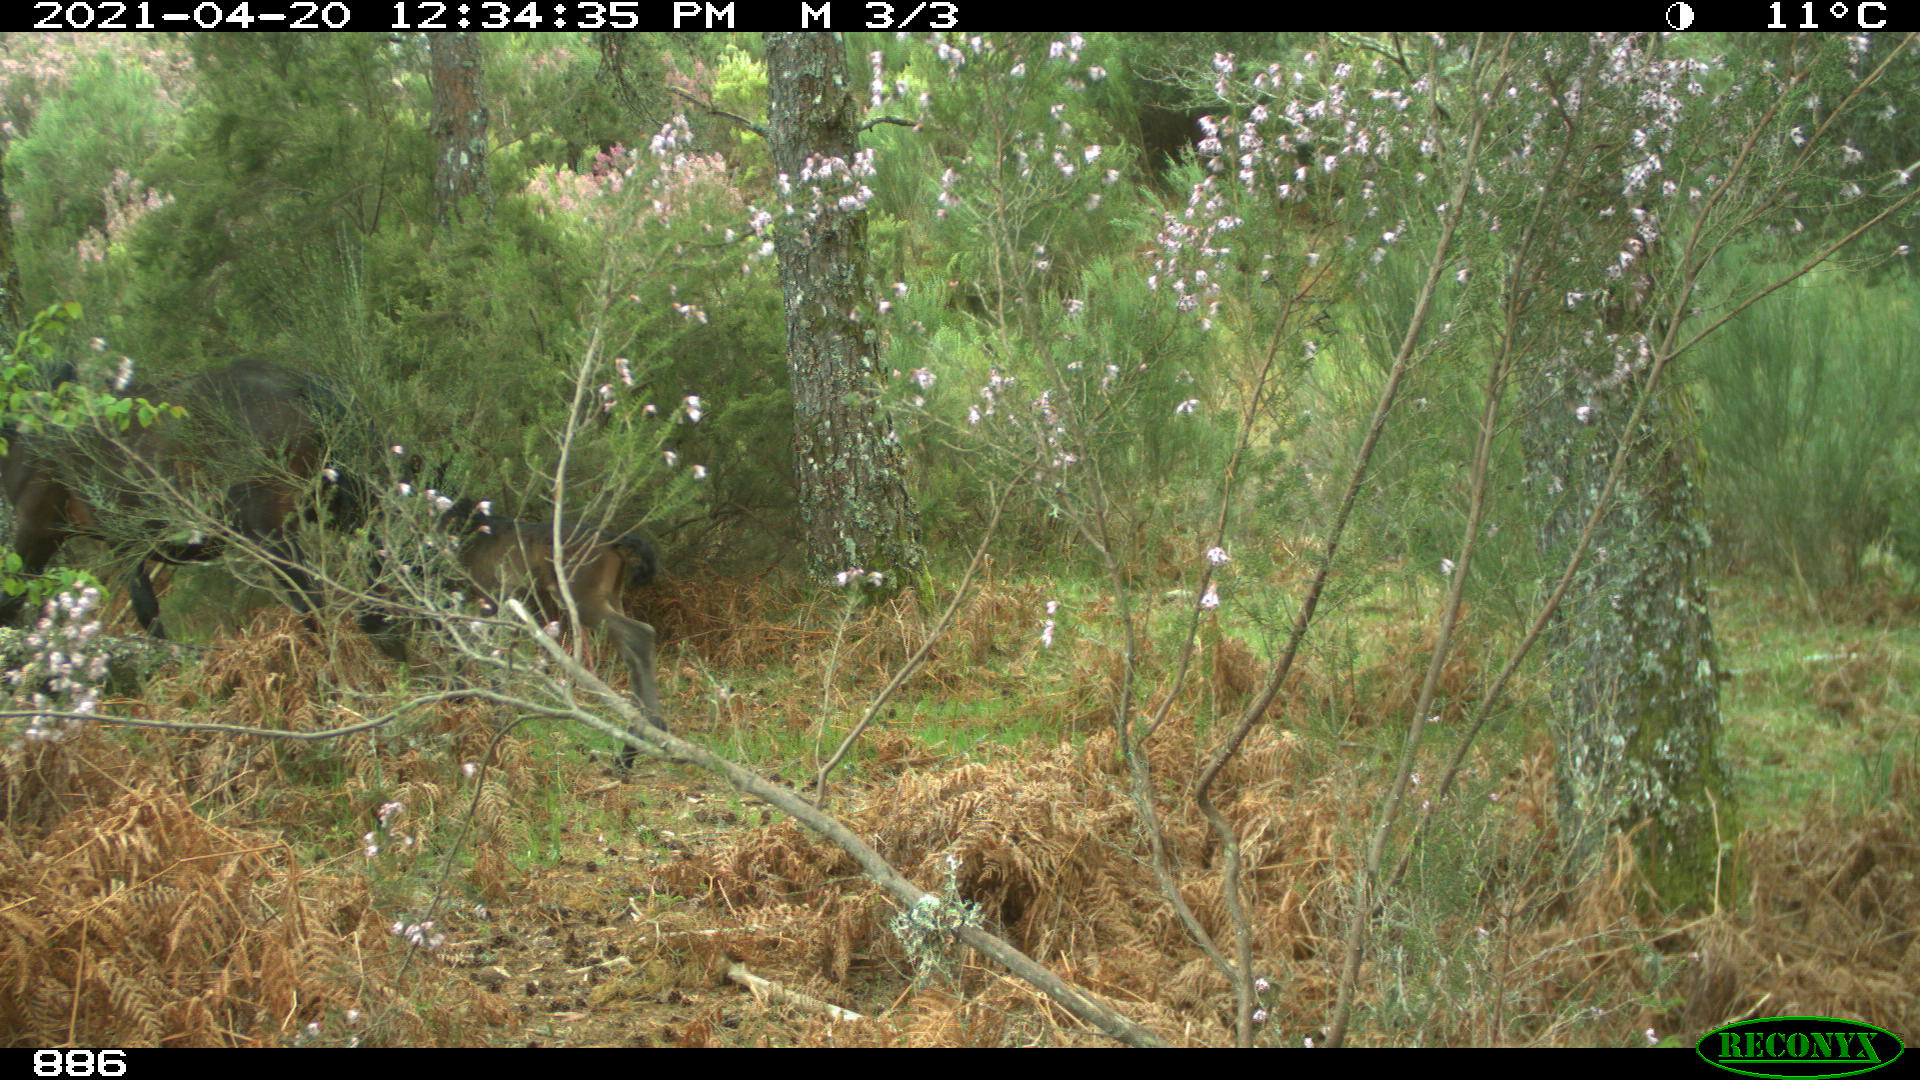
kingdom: Animalia
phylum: Chordata
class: Mammalia
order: Perissodactyla
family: Equidae
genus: Equus
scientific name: Equus caballus
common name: Horse
